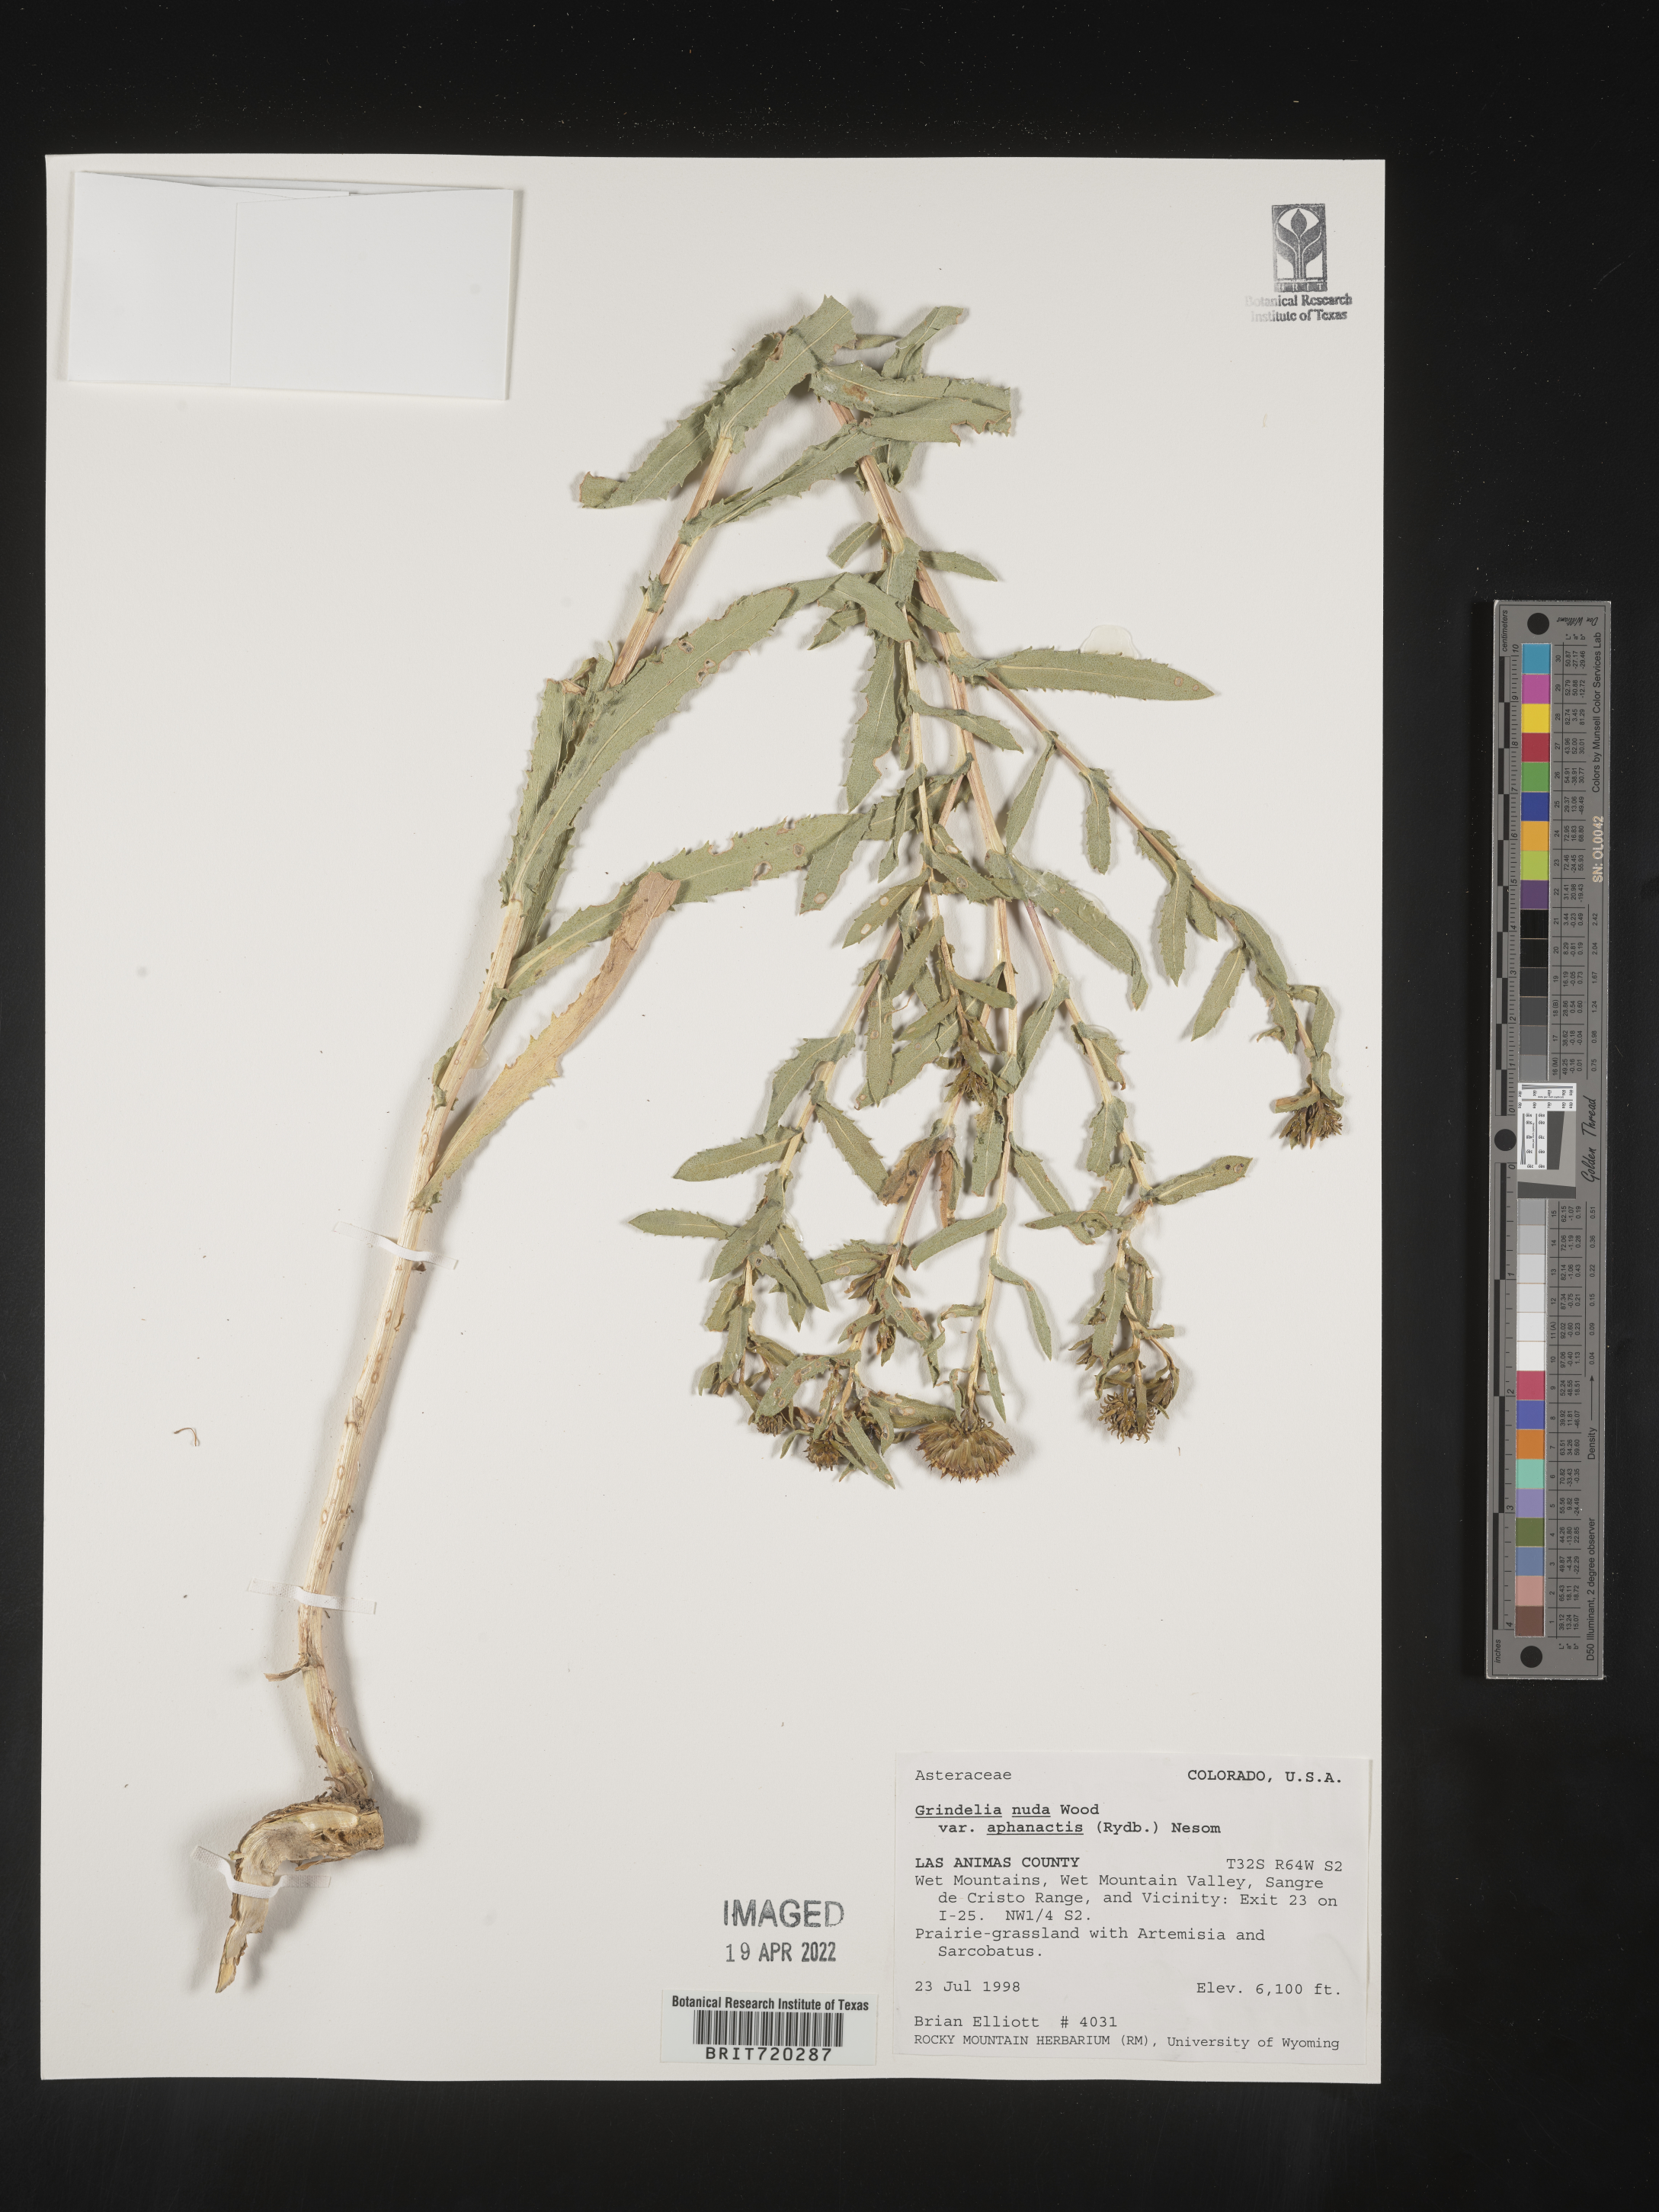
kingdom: Plantae
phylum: Tracheophyta
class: Magnoliopsida
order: Asterales
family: Asteraceae
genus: Grindelia
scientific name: Grindelia nuda
